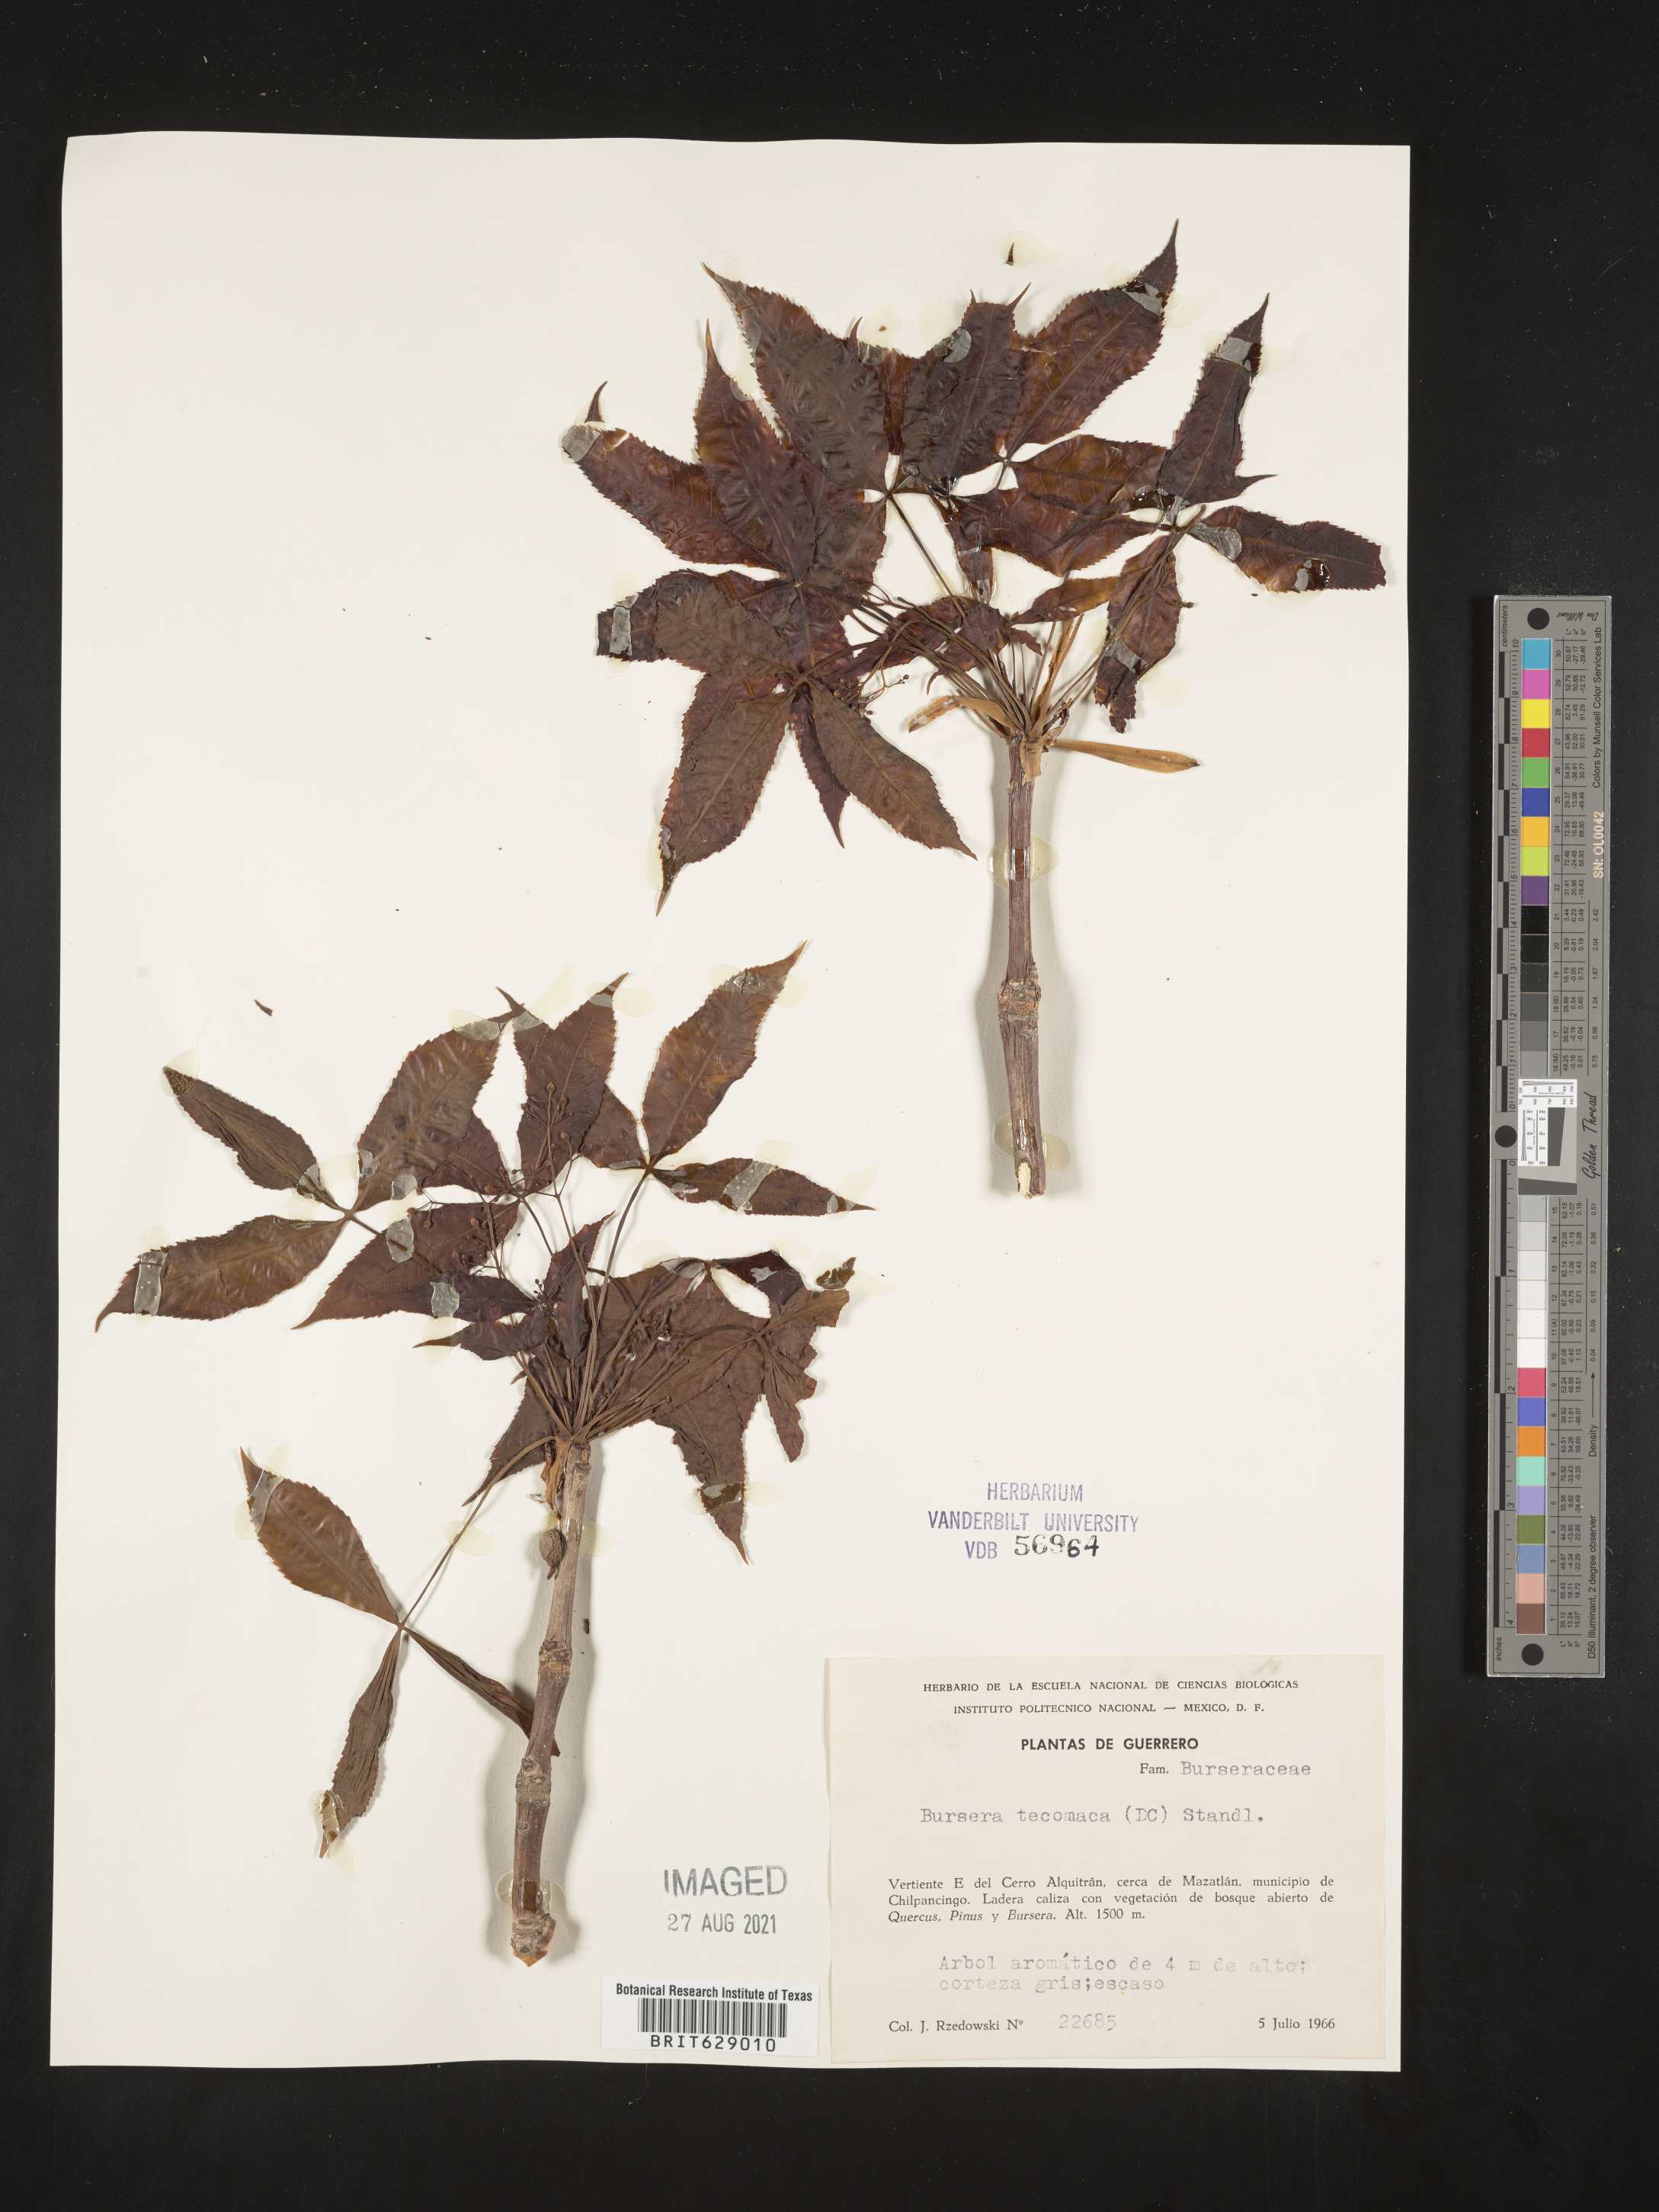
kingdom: Plantae
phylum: Tracheophyta
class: Magnoliopsida
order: Sapindales
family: Burseraceae
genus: Bursera
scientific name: Bursera
